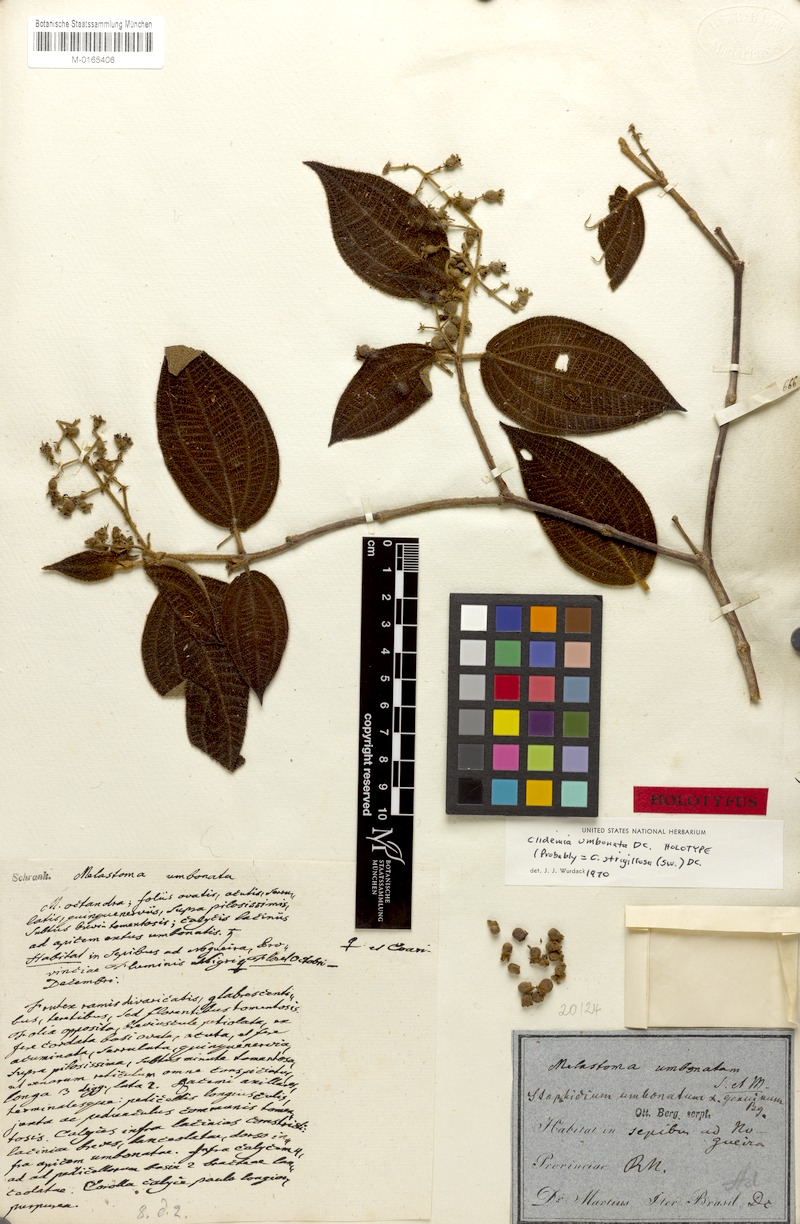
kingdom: Plantae
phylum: Tracheophyta
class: Magnoliopsida
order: Myrtales
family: Melastomataceae
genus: Miconia
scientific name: Miconia strigillosa
